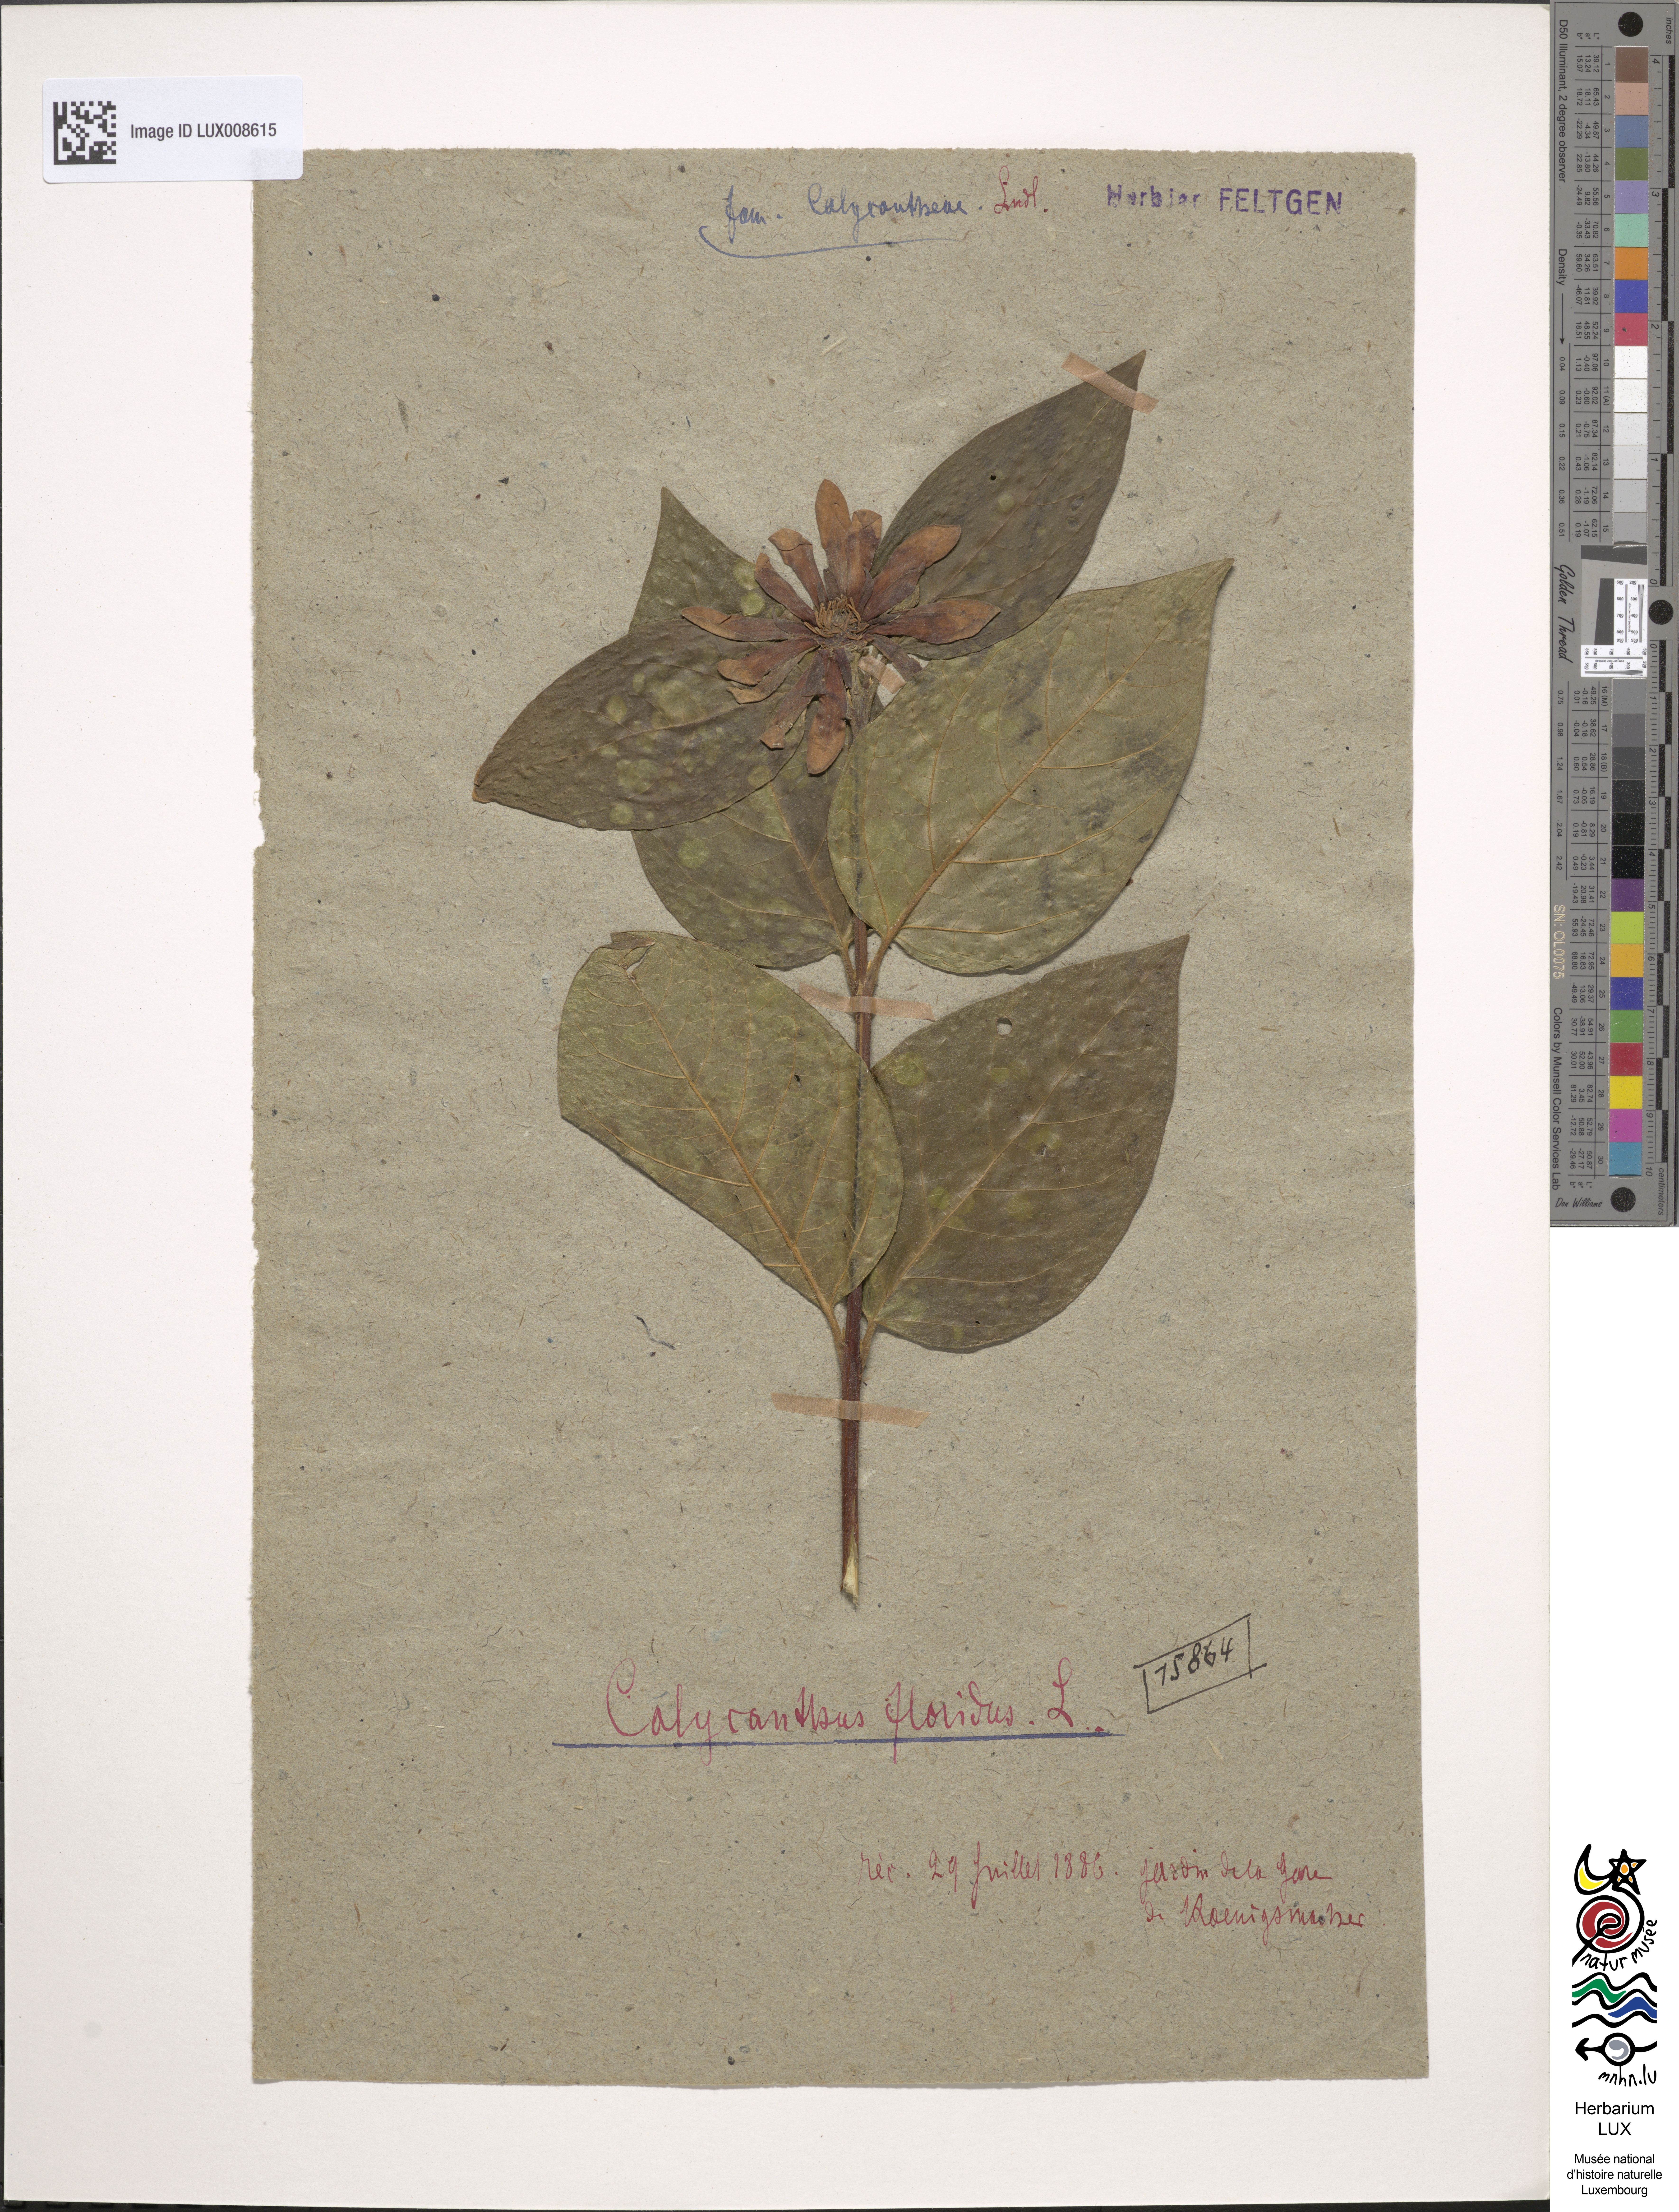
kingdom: Plantae
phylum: Tracheophyta
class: Magnoliopsida
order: Laurales
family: Calycanthaceae
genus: Calycanthus
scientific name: Calycanthus floridus
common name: Carolina-allspice
